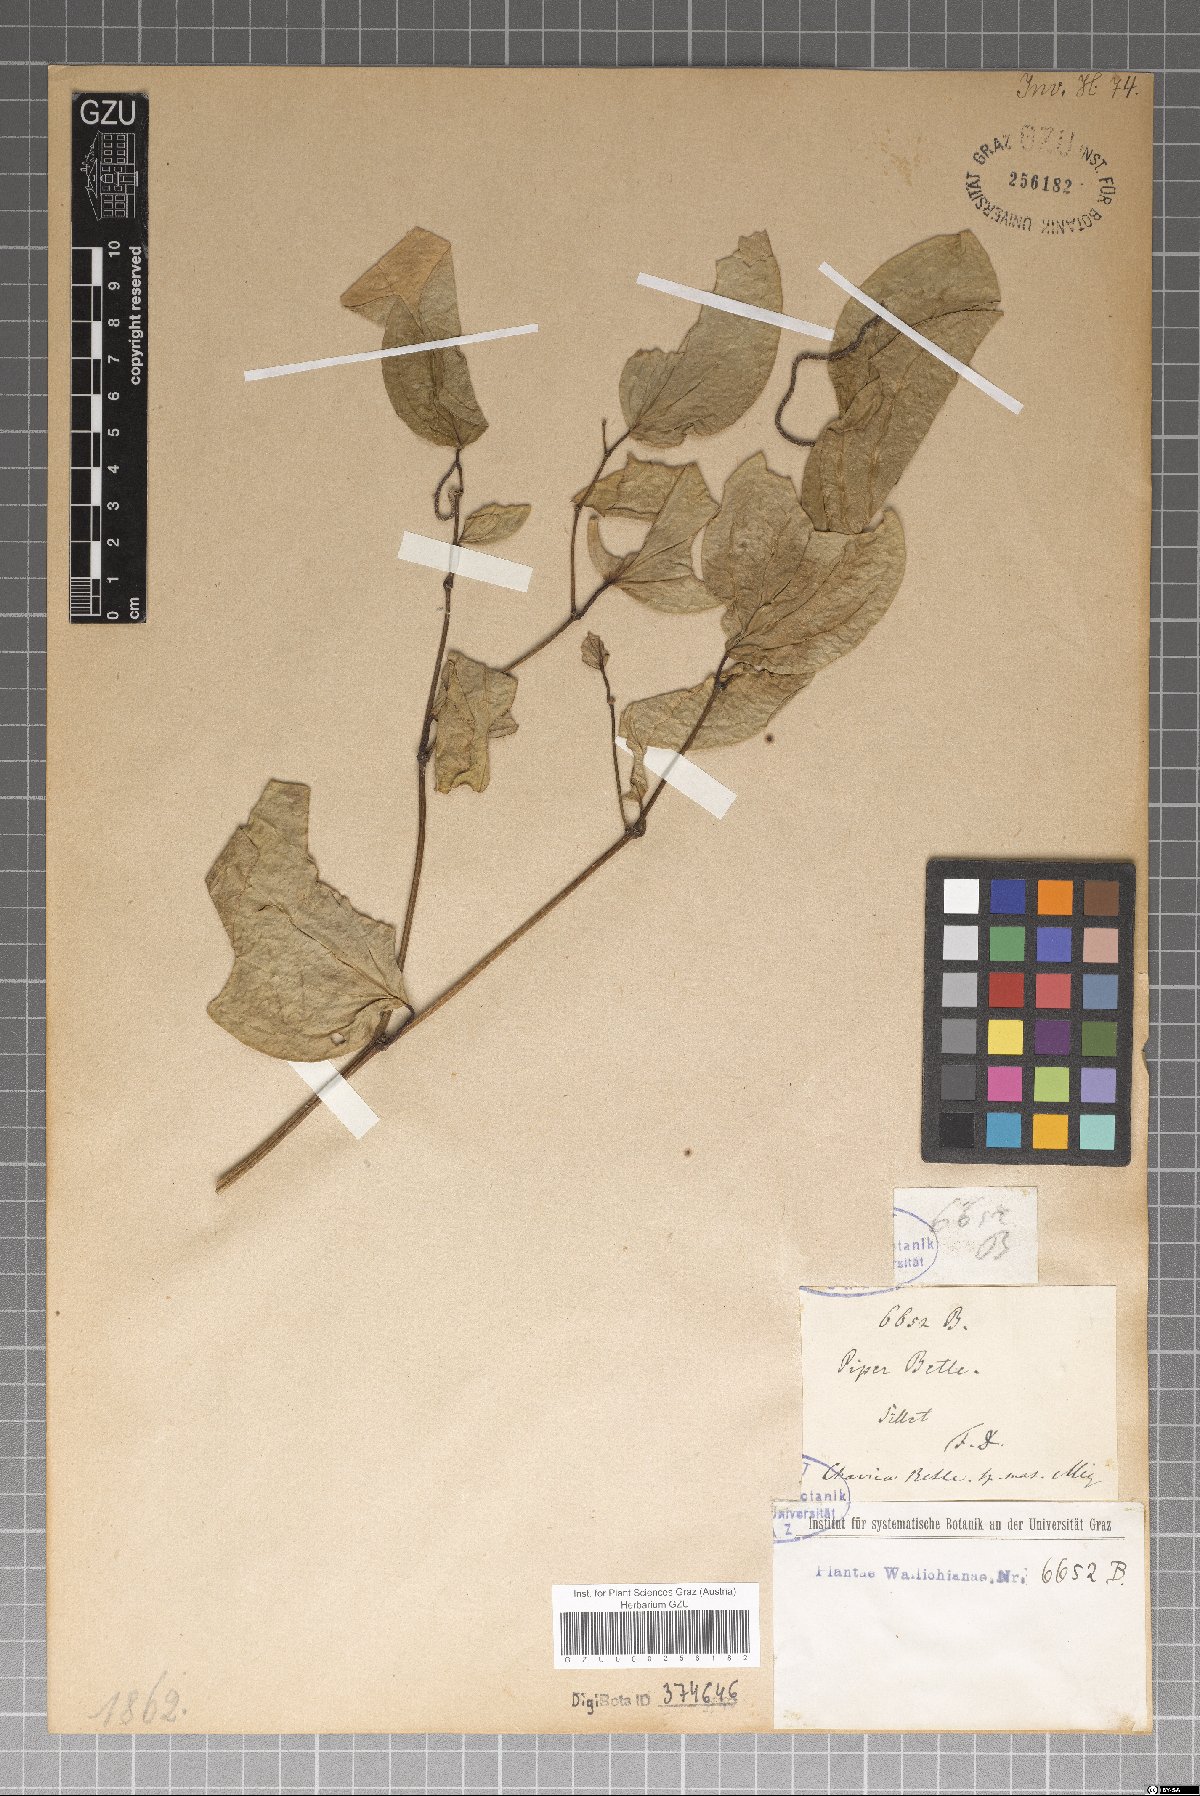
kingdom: Plantae
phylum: Tracheophyta
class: Magnoliopsida
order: Piperales
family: Piperaceae
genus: Piper
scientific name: Piper betle
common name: Betel pepper
